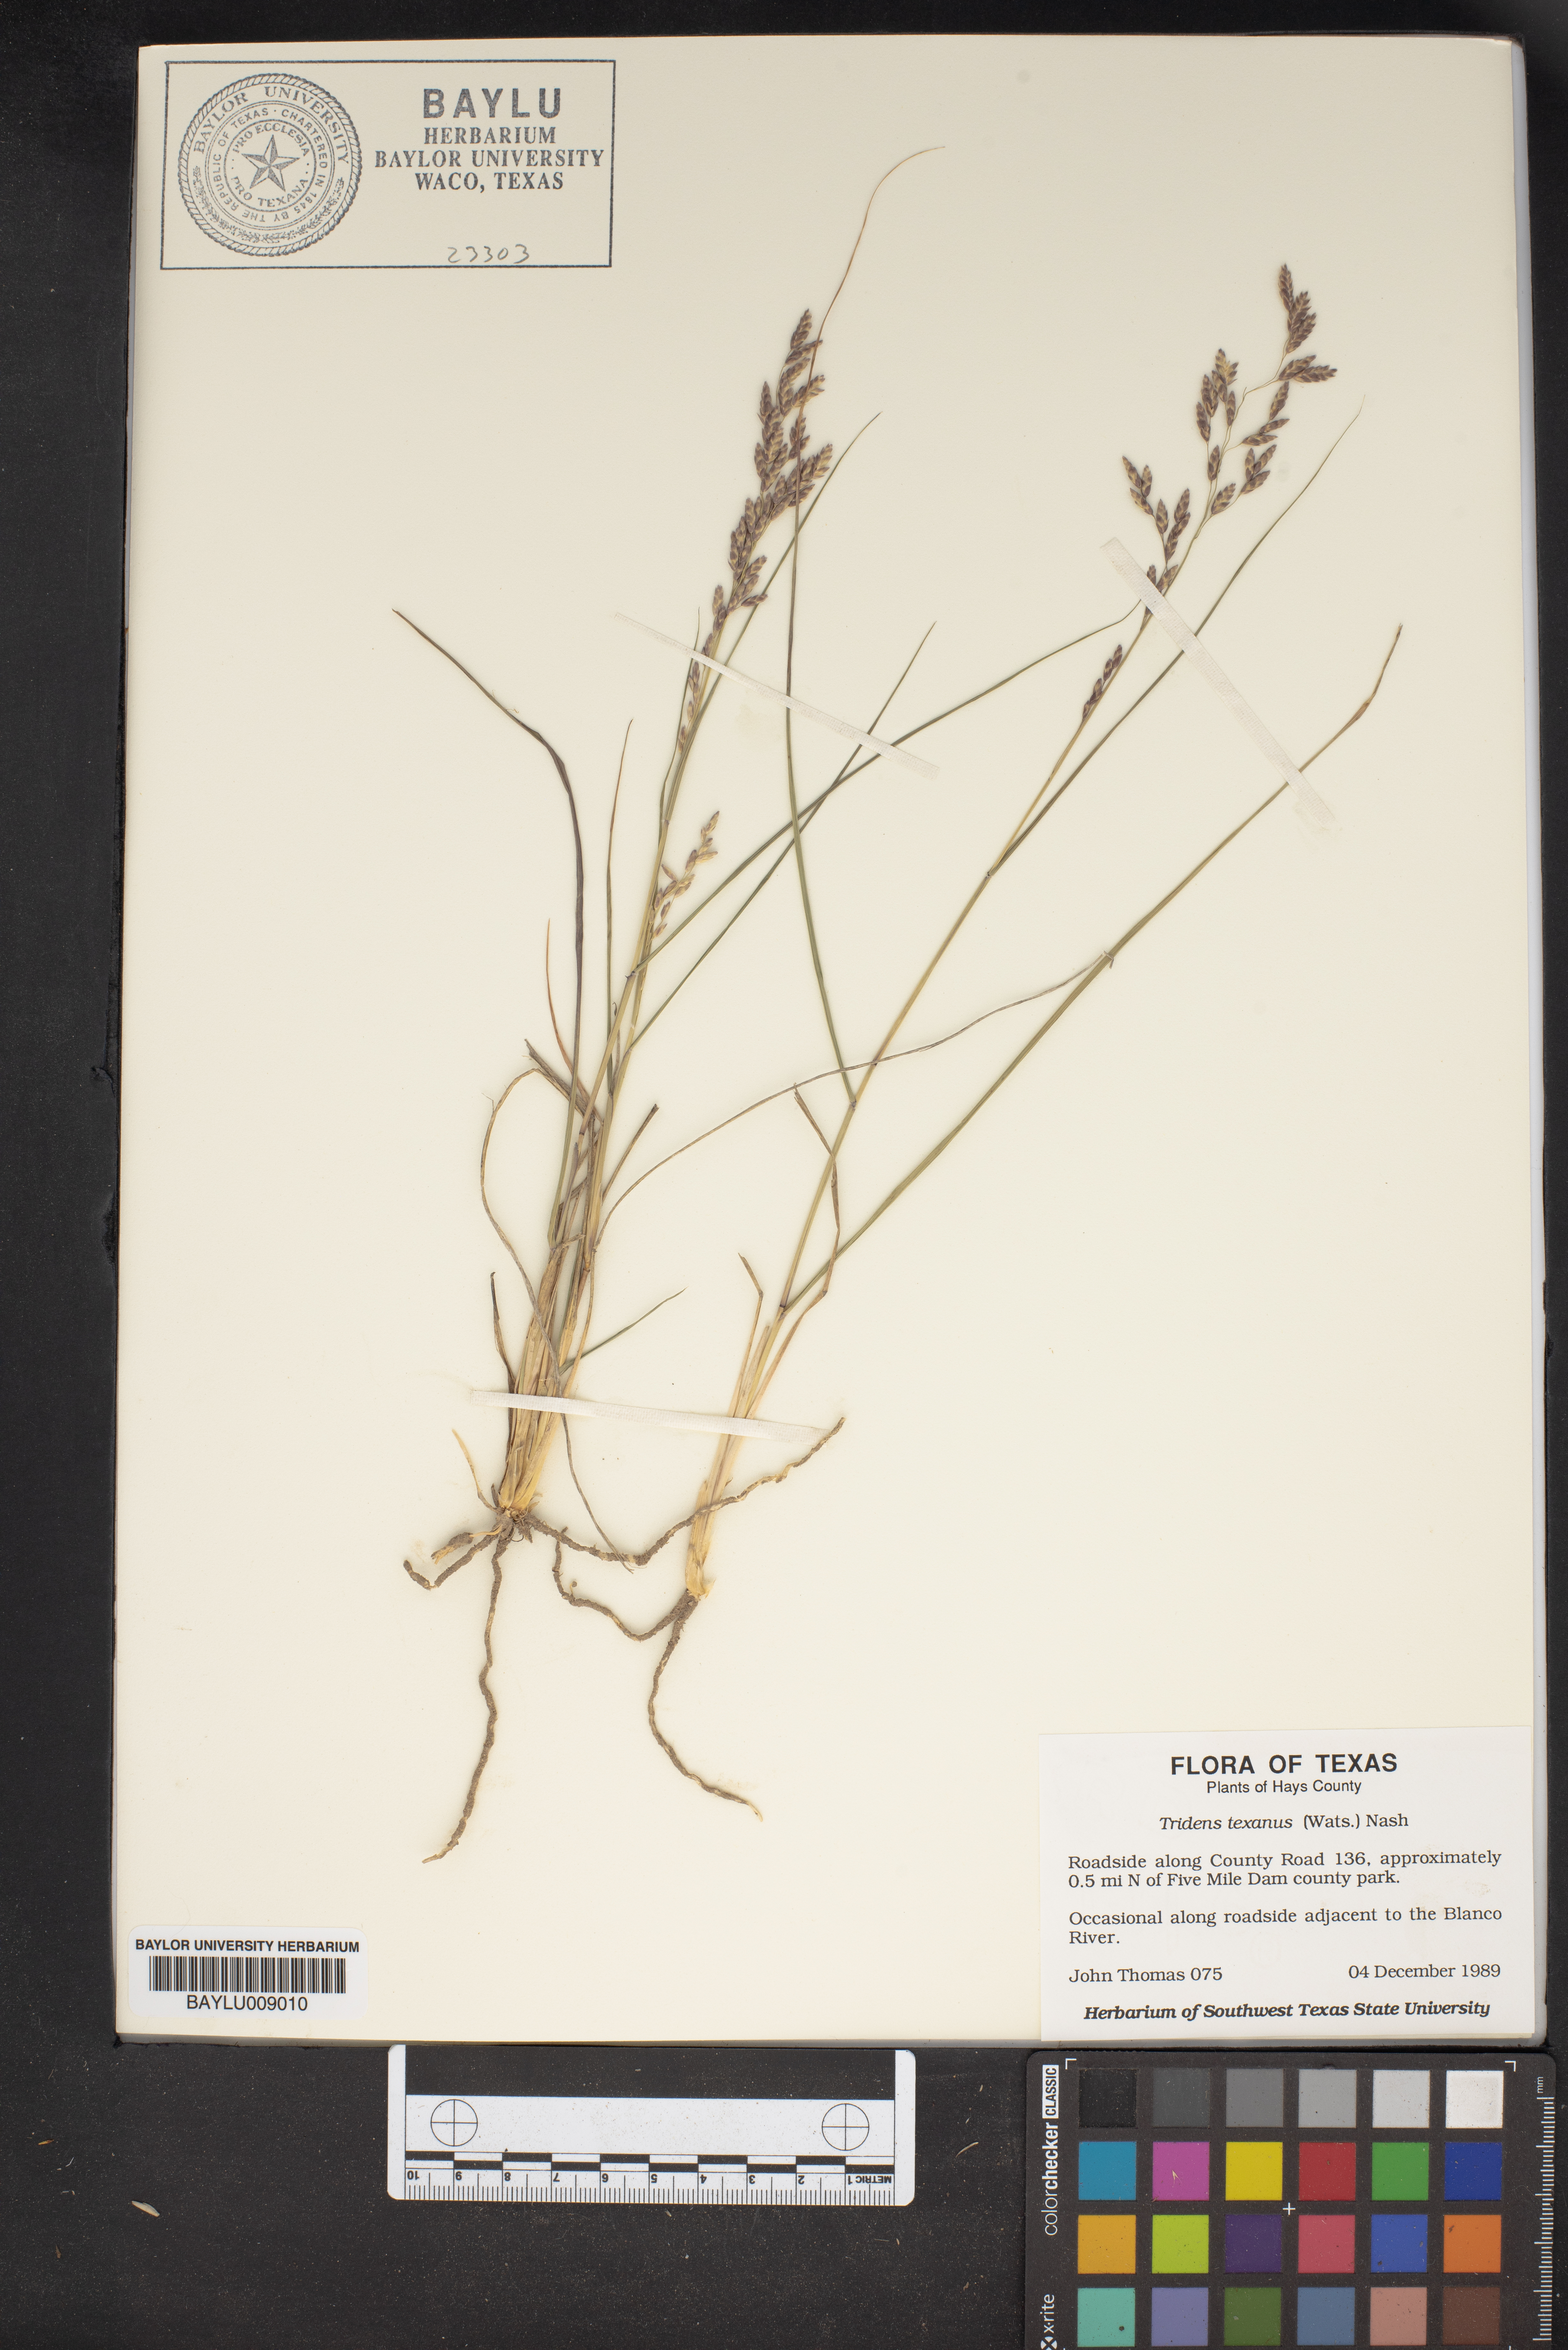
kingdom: Plantae
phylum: Tracheophyta
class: Liliopsida
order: Poales
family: Poaceae
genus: Tridens
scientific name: Tridens texanus
